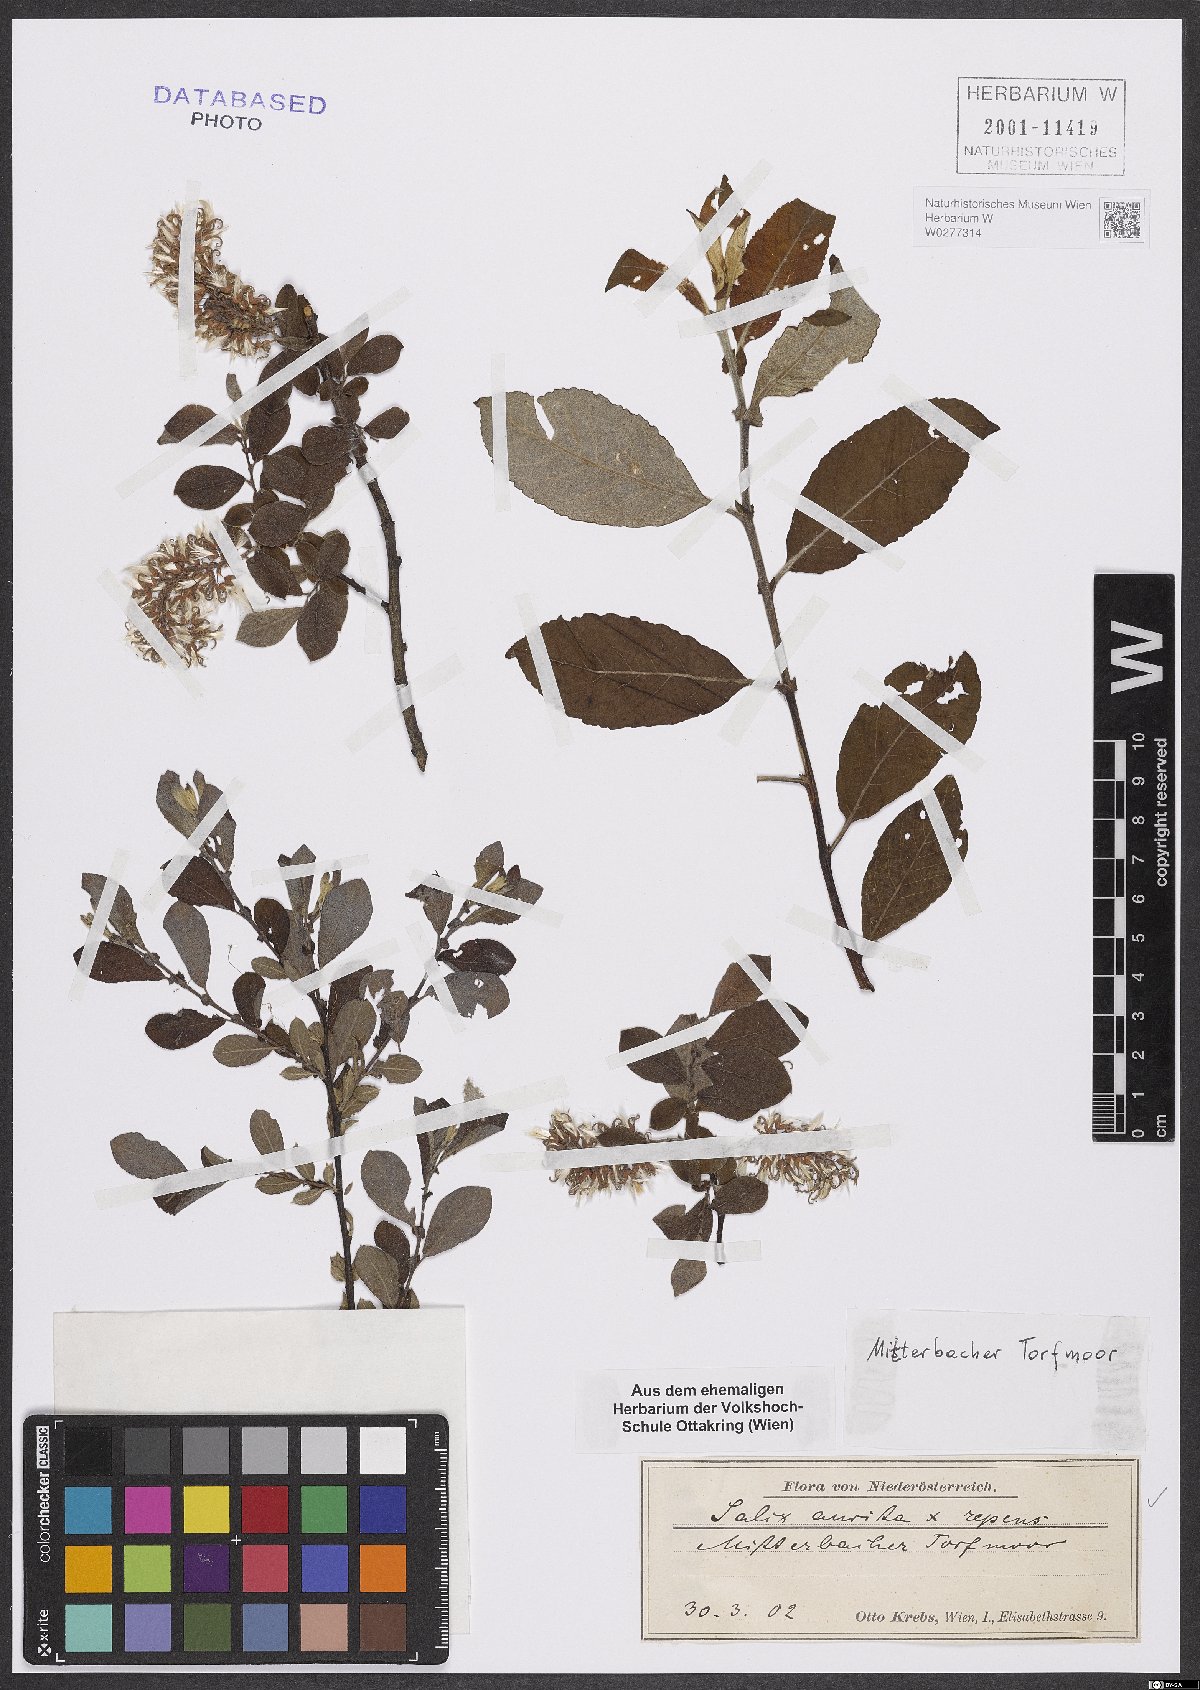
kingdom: Plantae
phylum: Tracheophyta
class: Magnoliopsida
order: Malpighiales
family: Salicaceae
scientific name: Salicaceae
